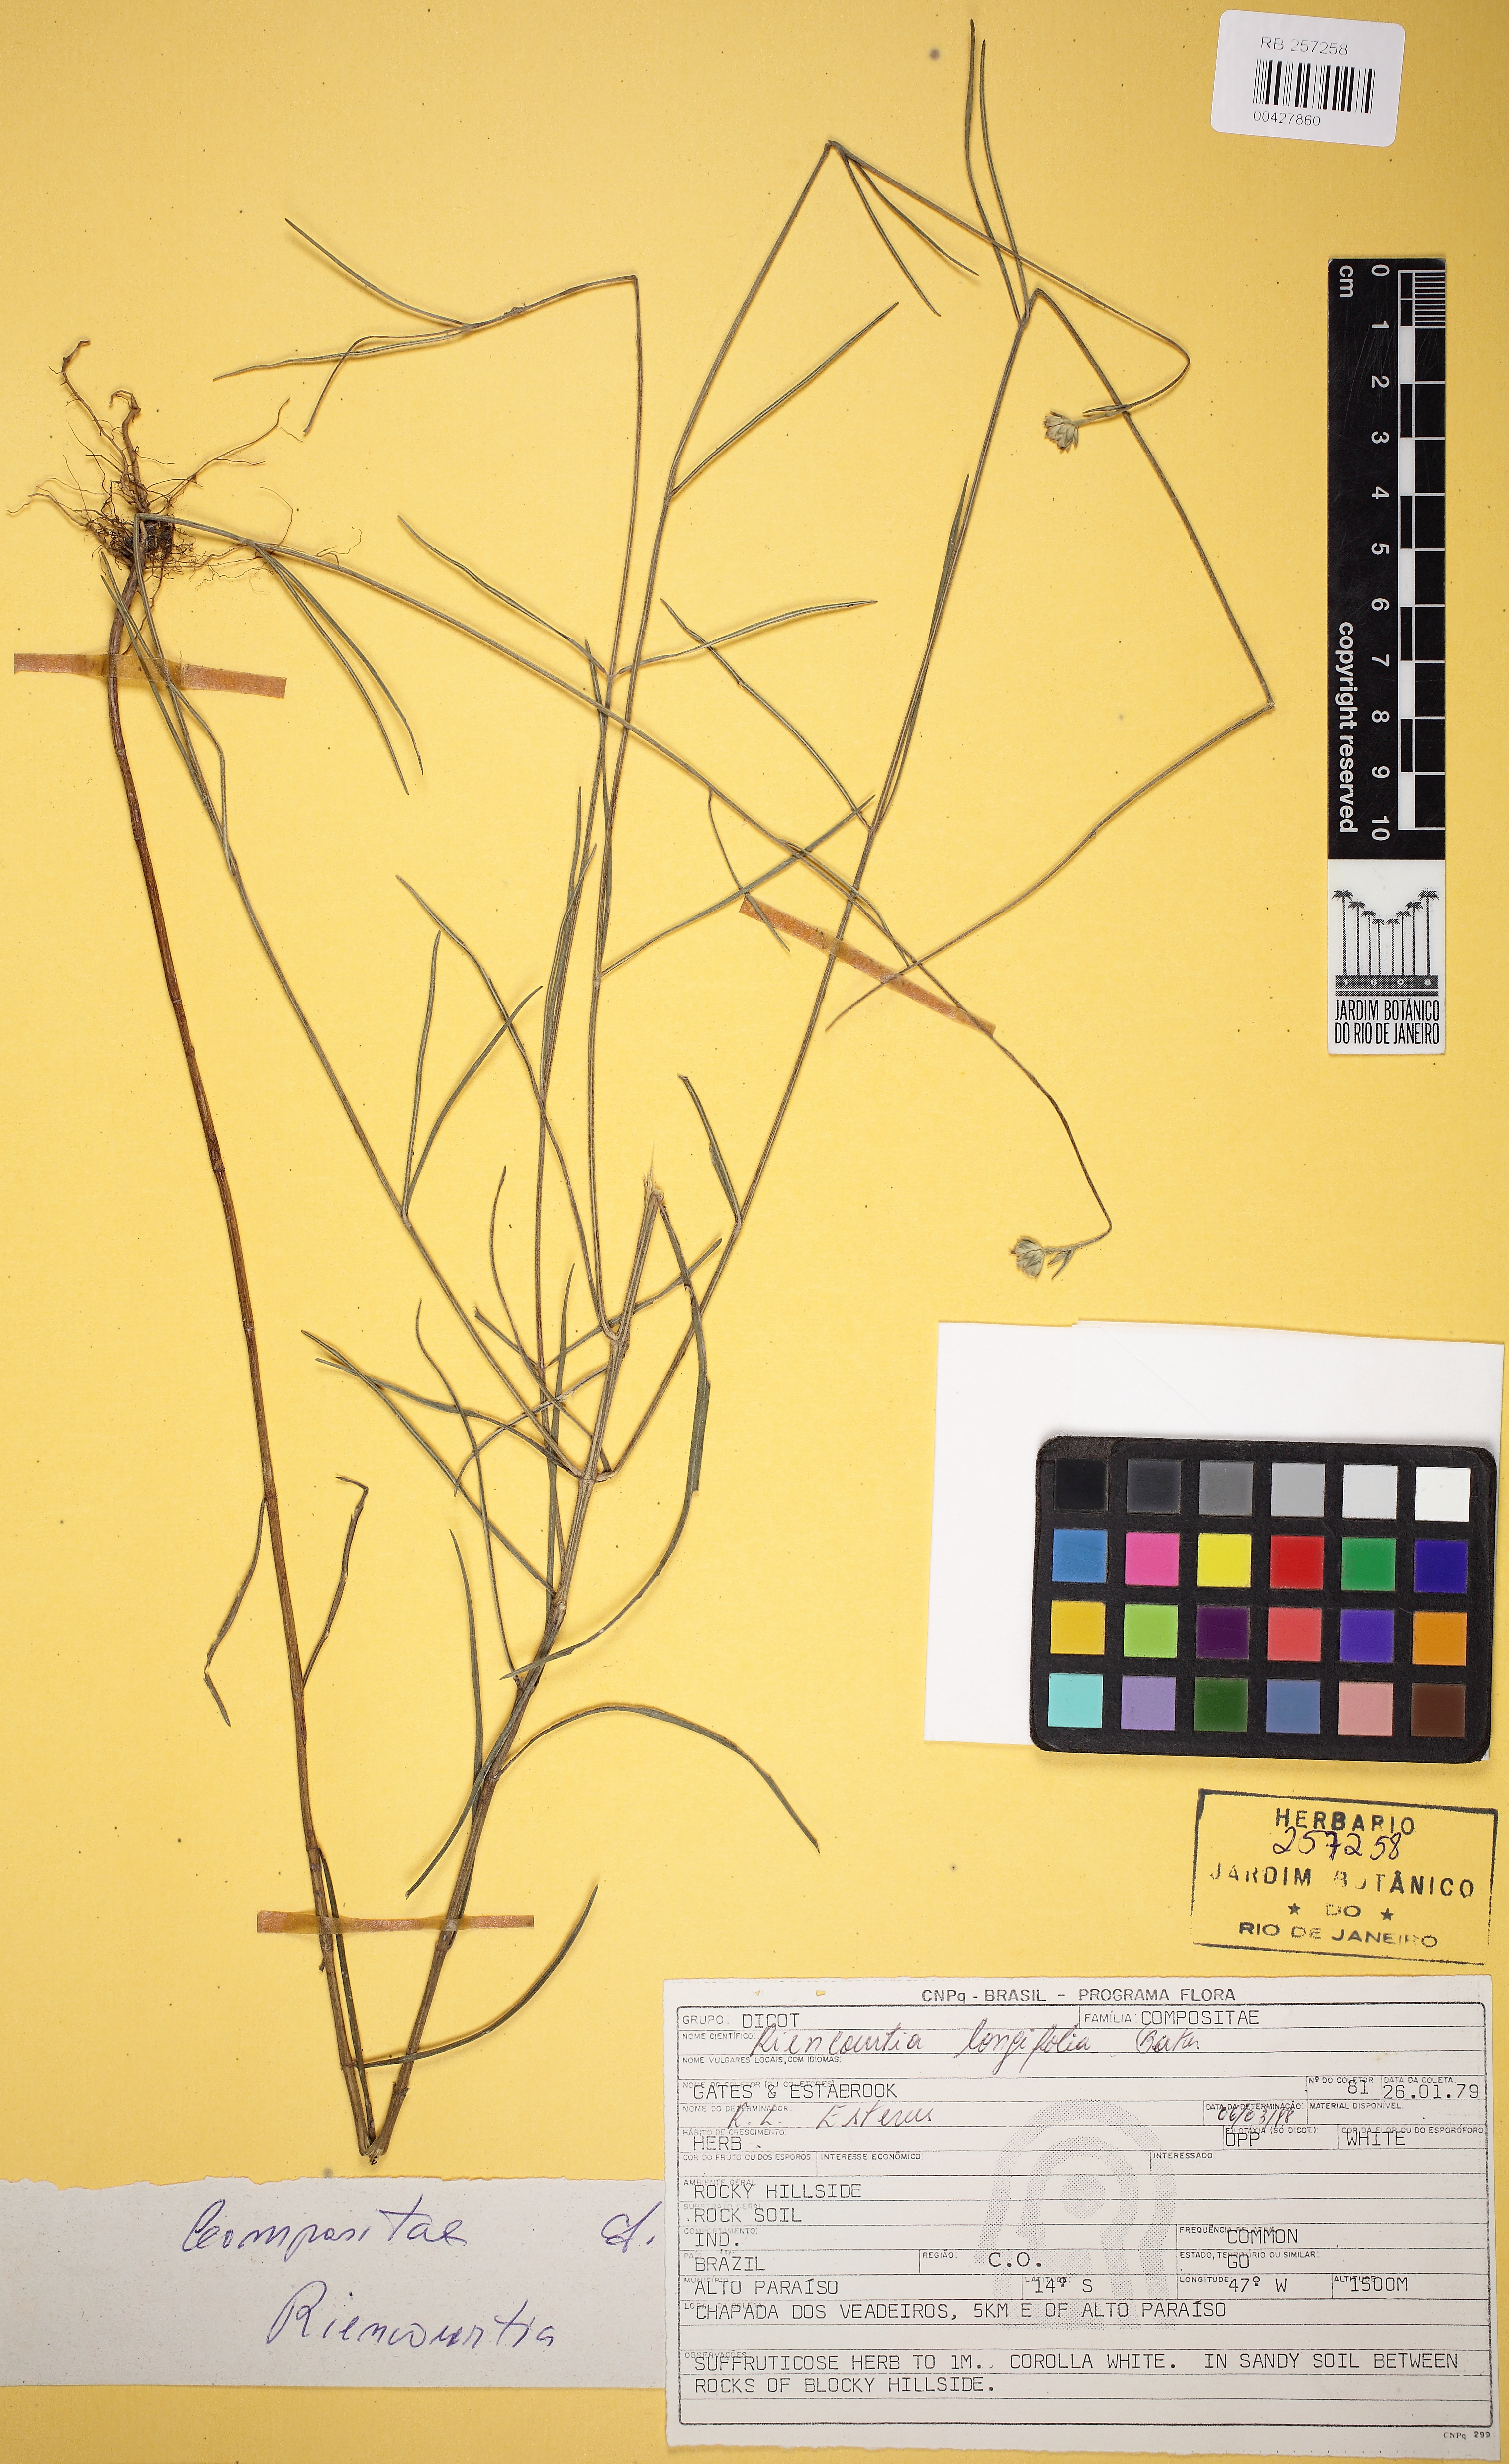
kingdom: Plantae
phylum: Tracheophyta
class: Magnoliopsida
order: Asterales
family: Asteraceae
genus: Riencourtia
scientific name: Riencourtia longifolia
